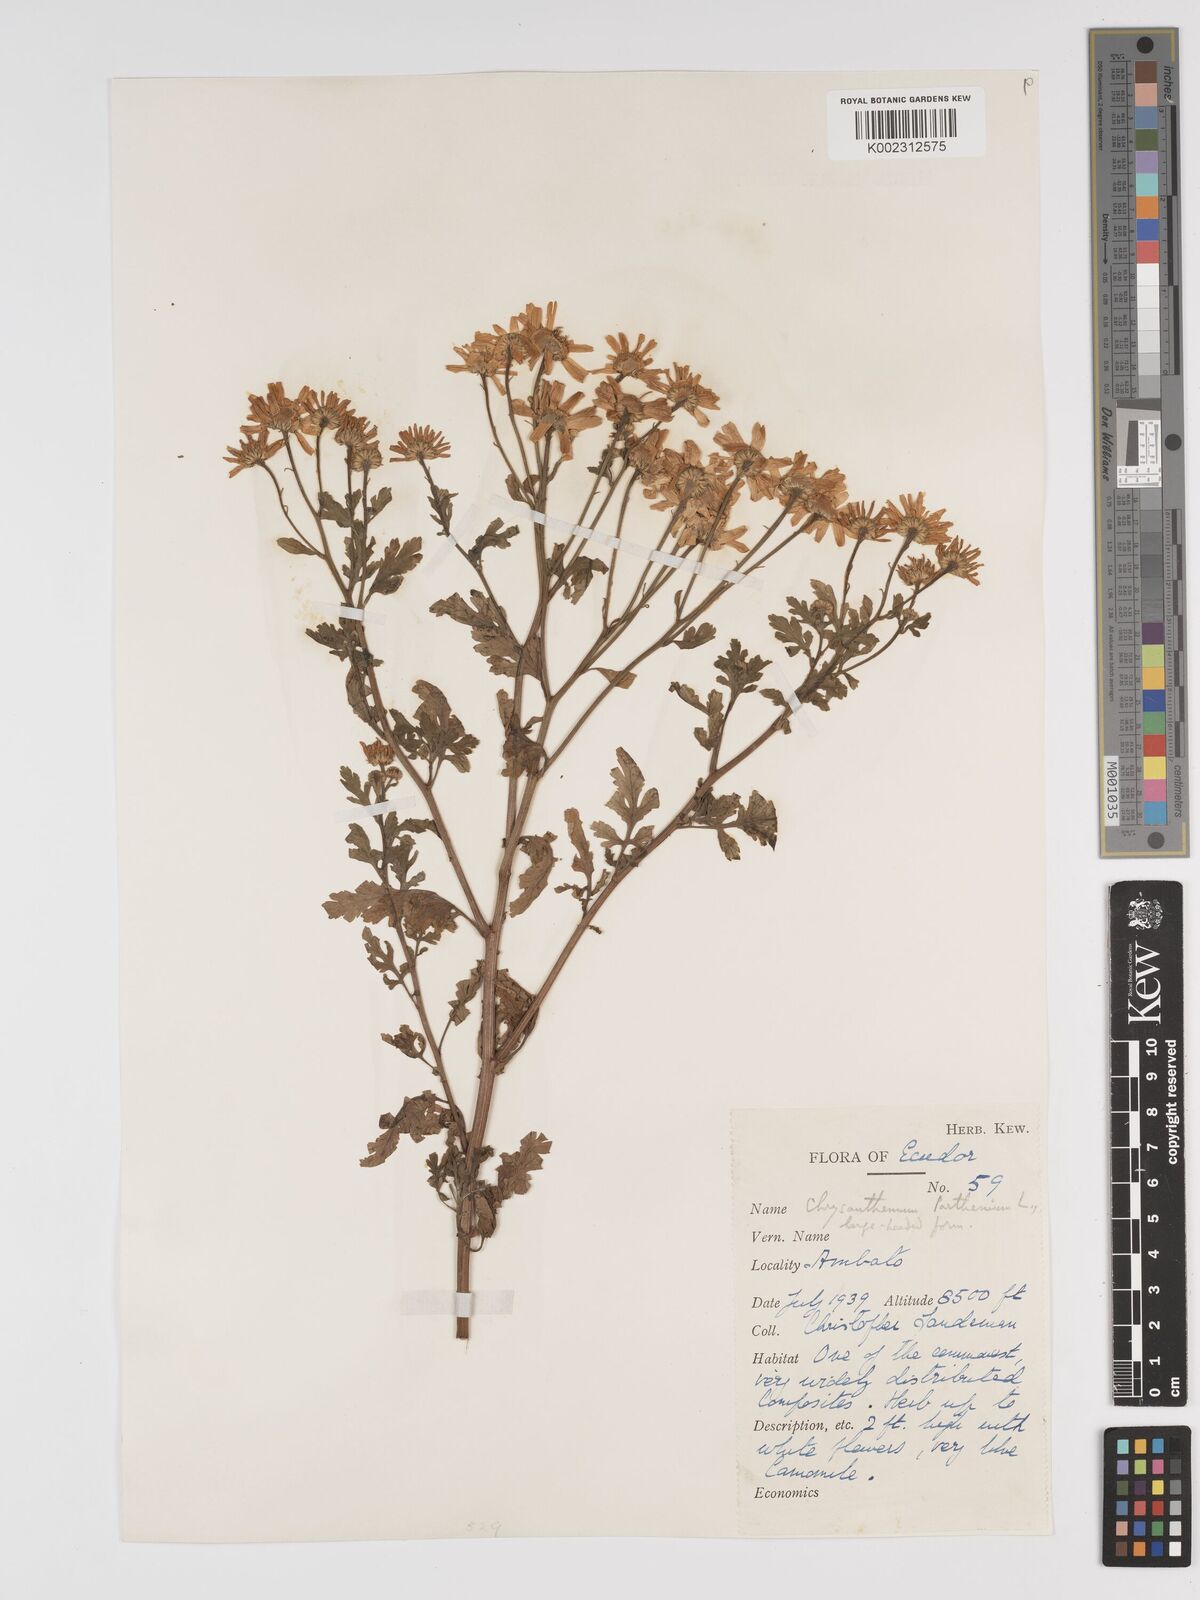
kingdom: Plantae
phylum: Tracheophyta
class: Magnoliopsida
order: Asterales
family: Asteraceae
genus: Tanacetum
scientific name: Tanacetum parthenium
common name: Feverfew
